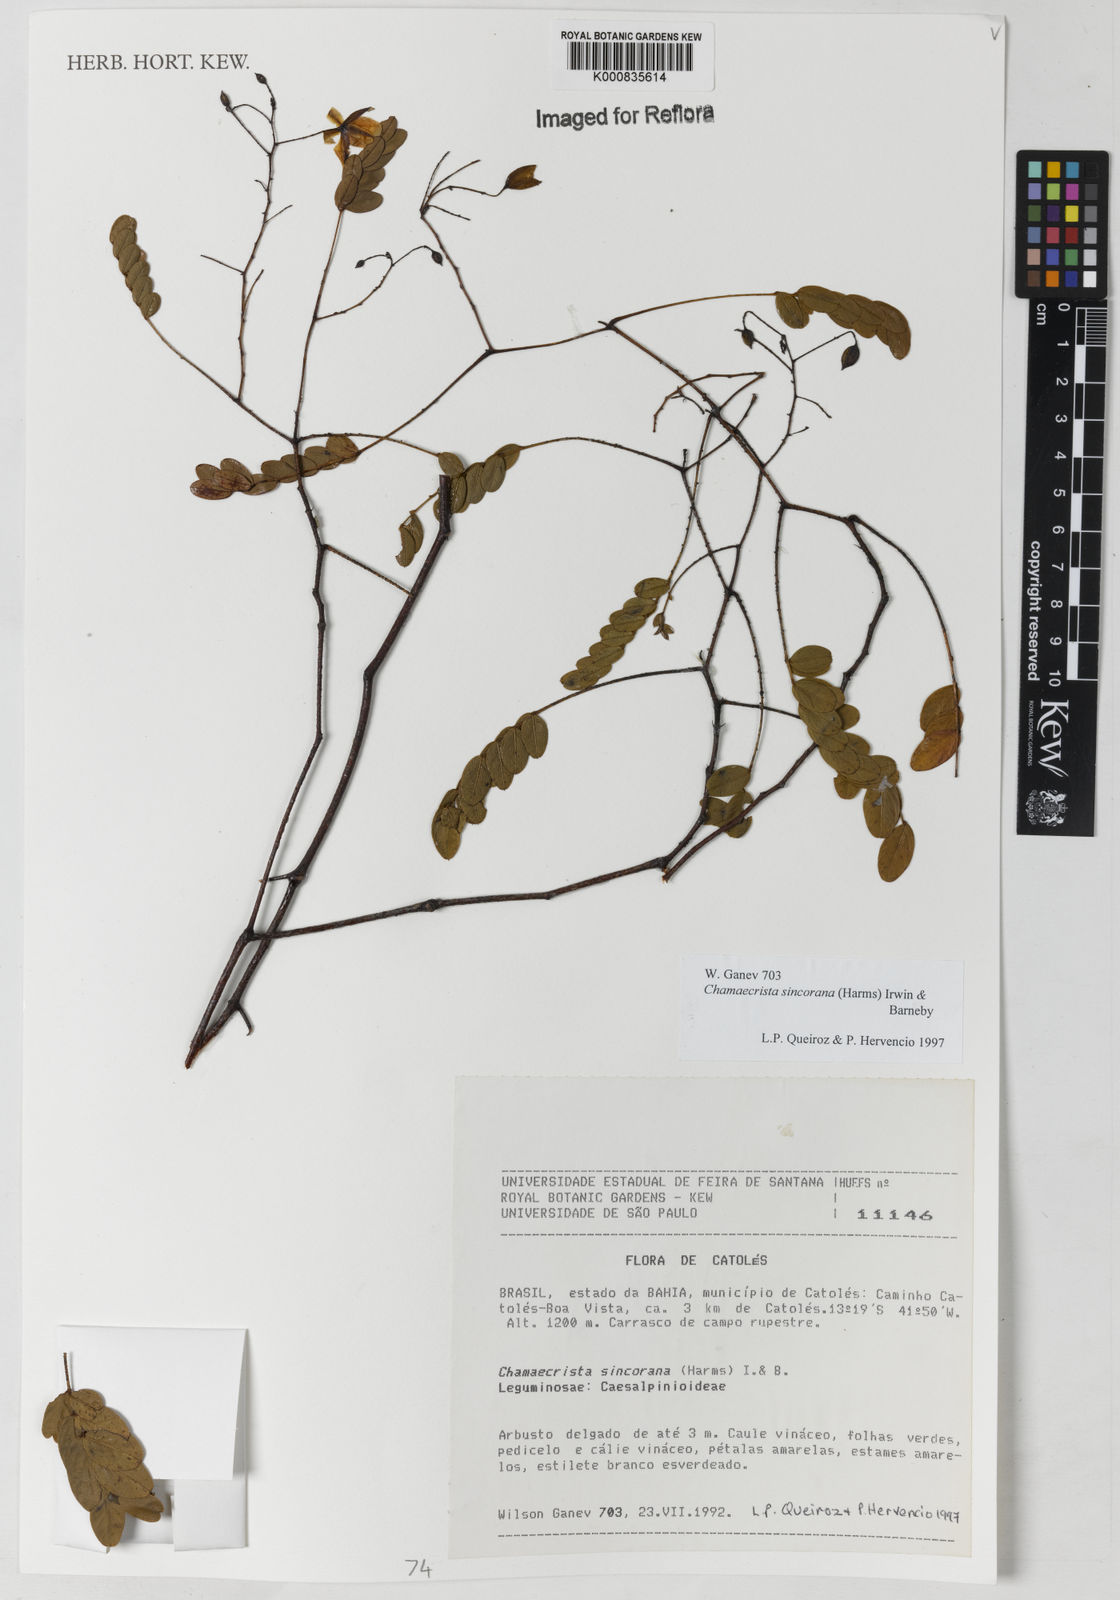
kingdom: Plantae
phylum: Tracheophyta
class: Magnoliopsida
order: Fabales
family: Fabaceae
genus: Chamaecrista
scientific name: Chamaecrista sincorana
